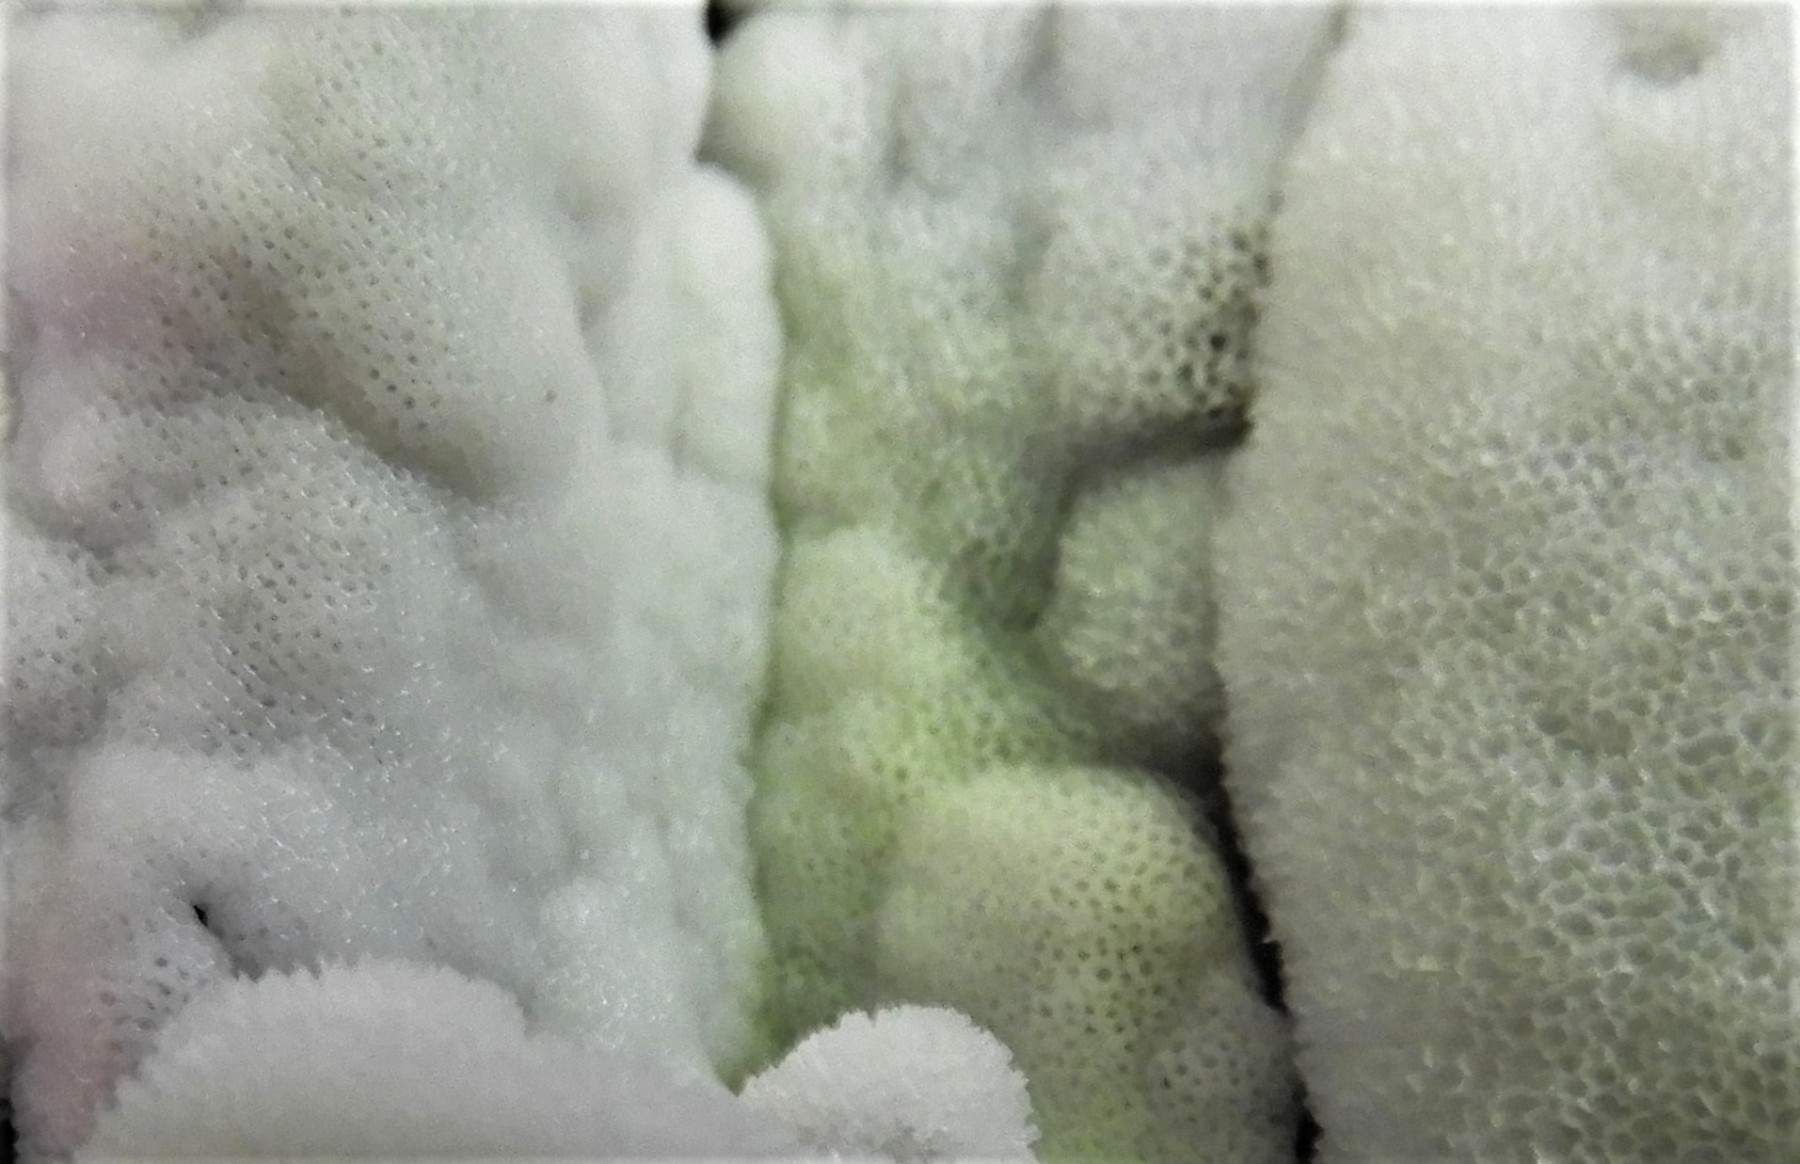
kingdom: Protozoa
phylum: Mycetozoa
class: Protosteliomycetes
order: Ceratiomyxales
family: Ceratiomyxaceae
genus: Ceratiomyxa
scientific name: Ceratiomyxa fruticulosa
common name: Honeycomb coral slime mold
